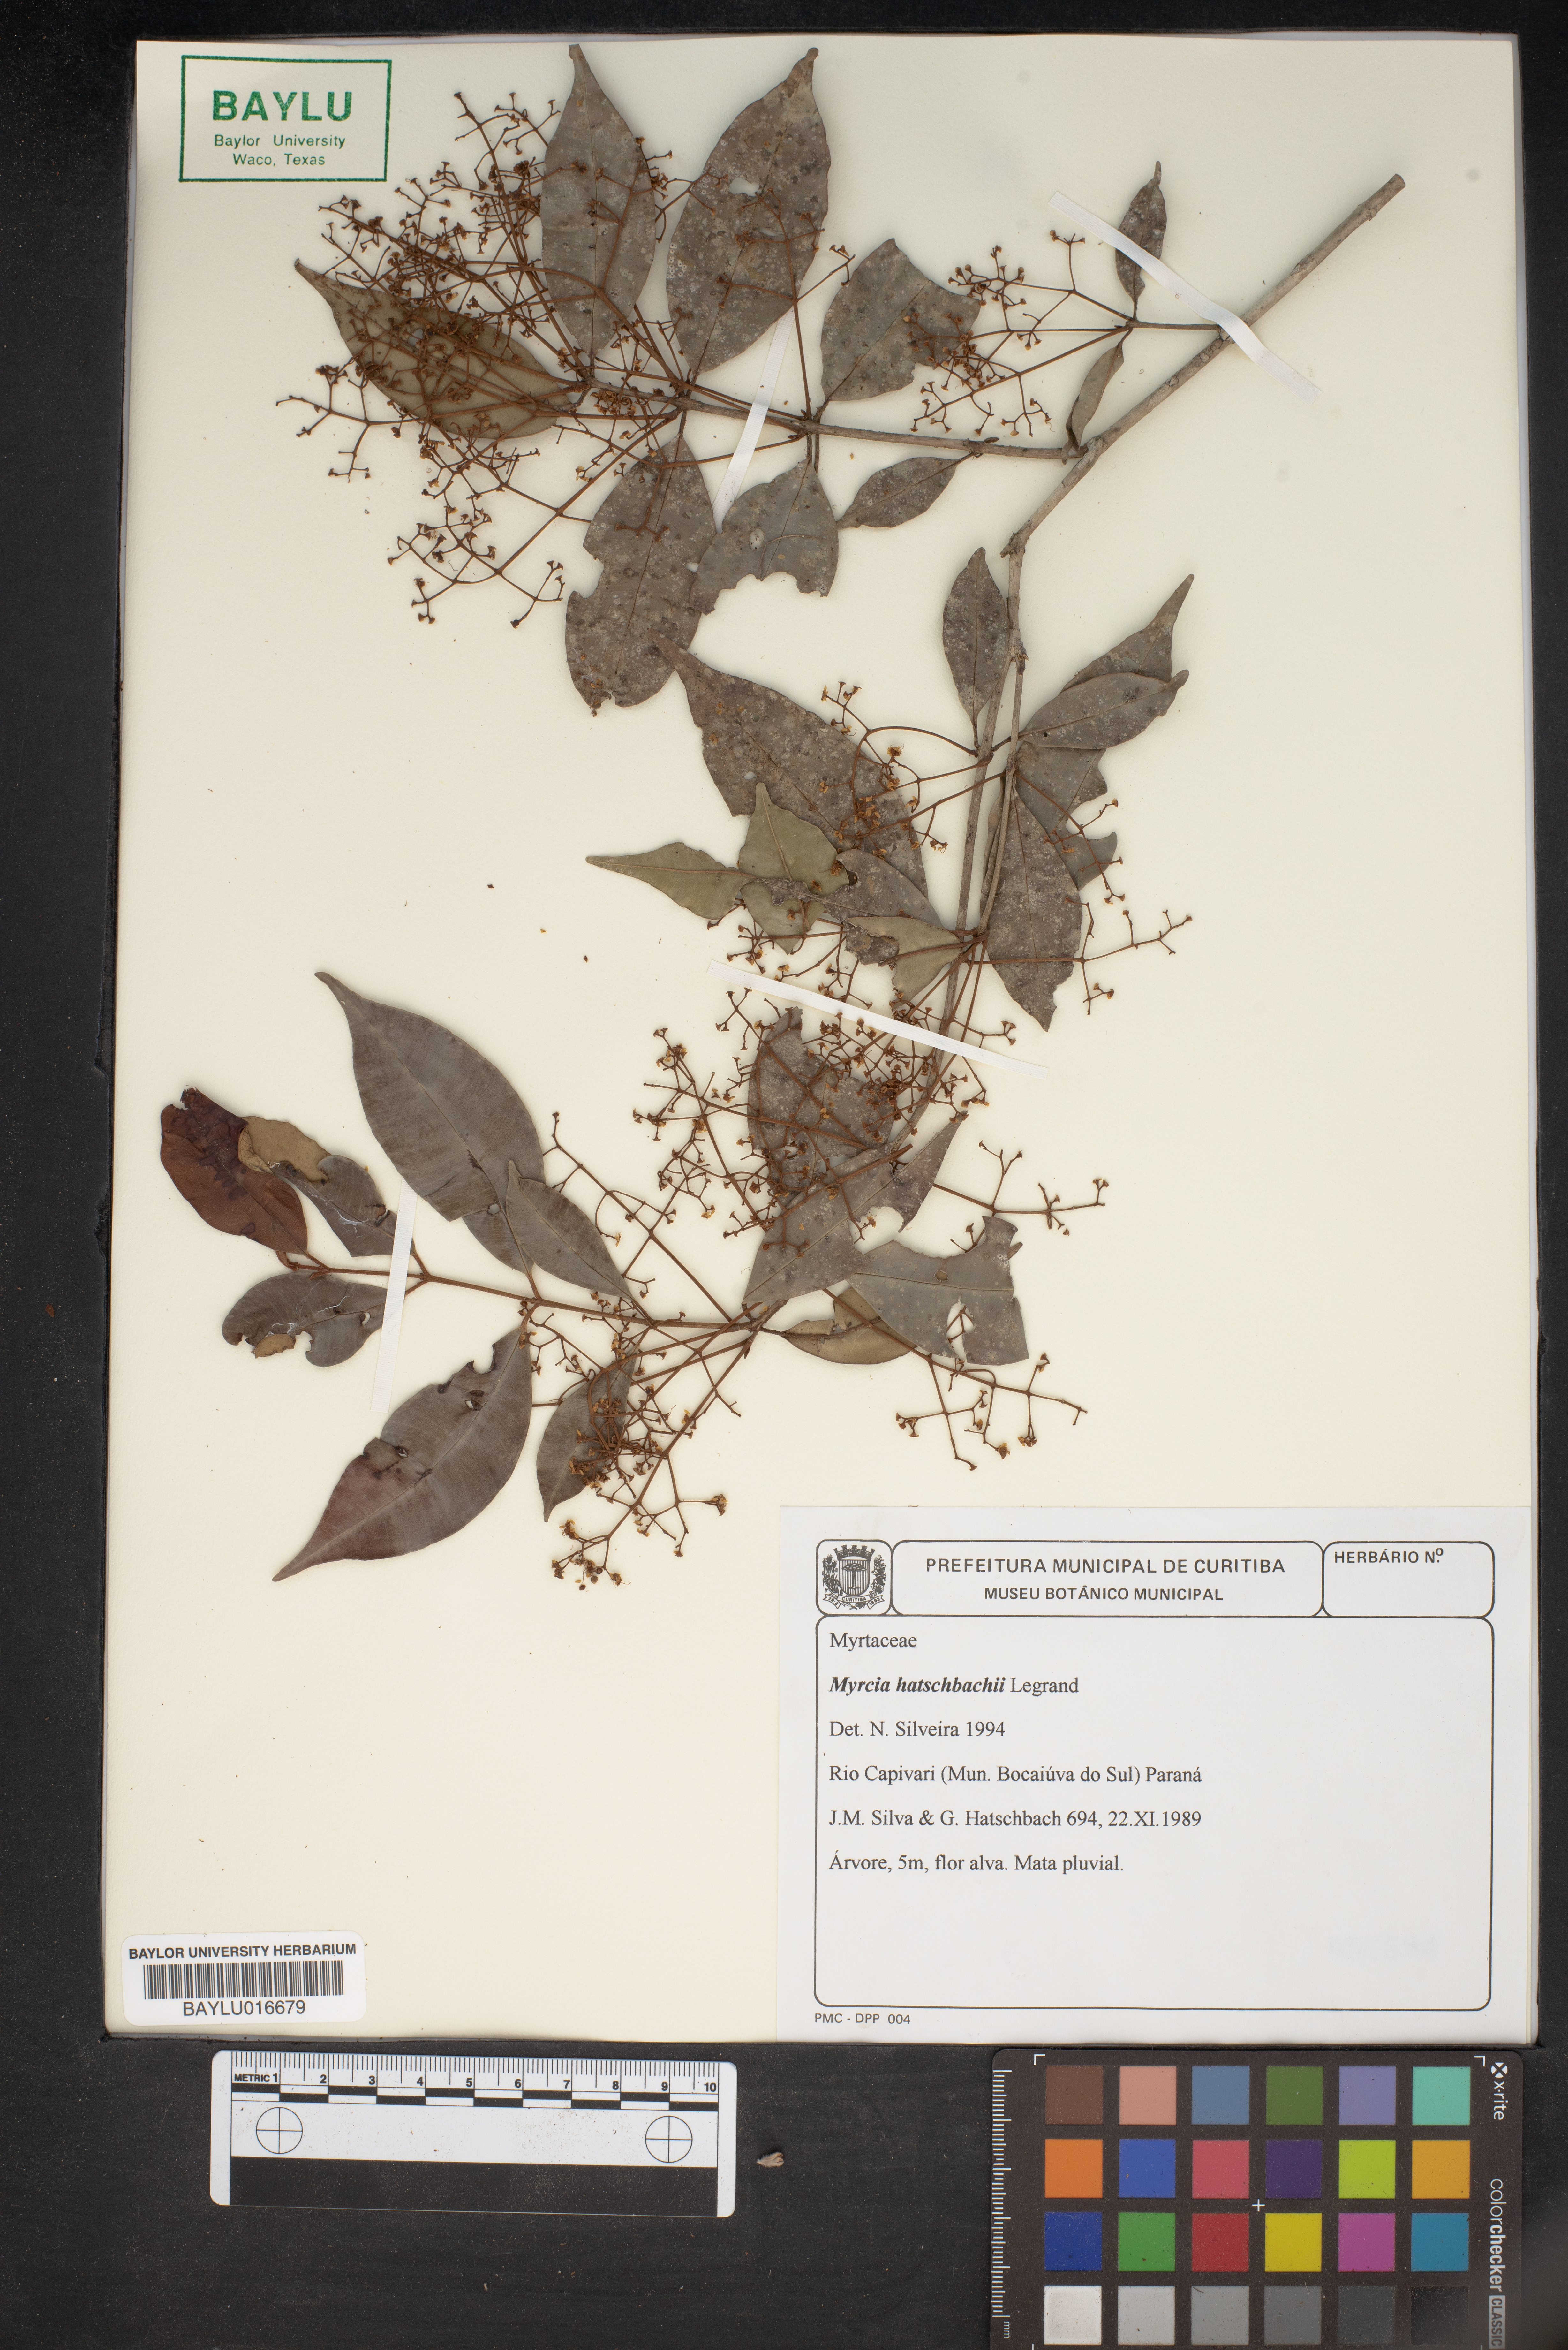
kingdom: Plantae
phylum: Tracheophyta
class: Magnoliopsida
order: Myrtales
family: Myrtaceae
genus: Myrcia
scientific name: Myrcia hatschbachii
